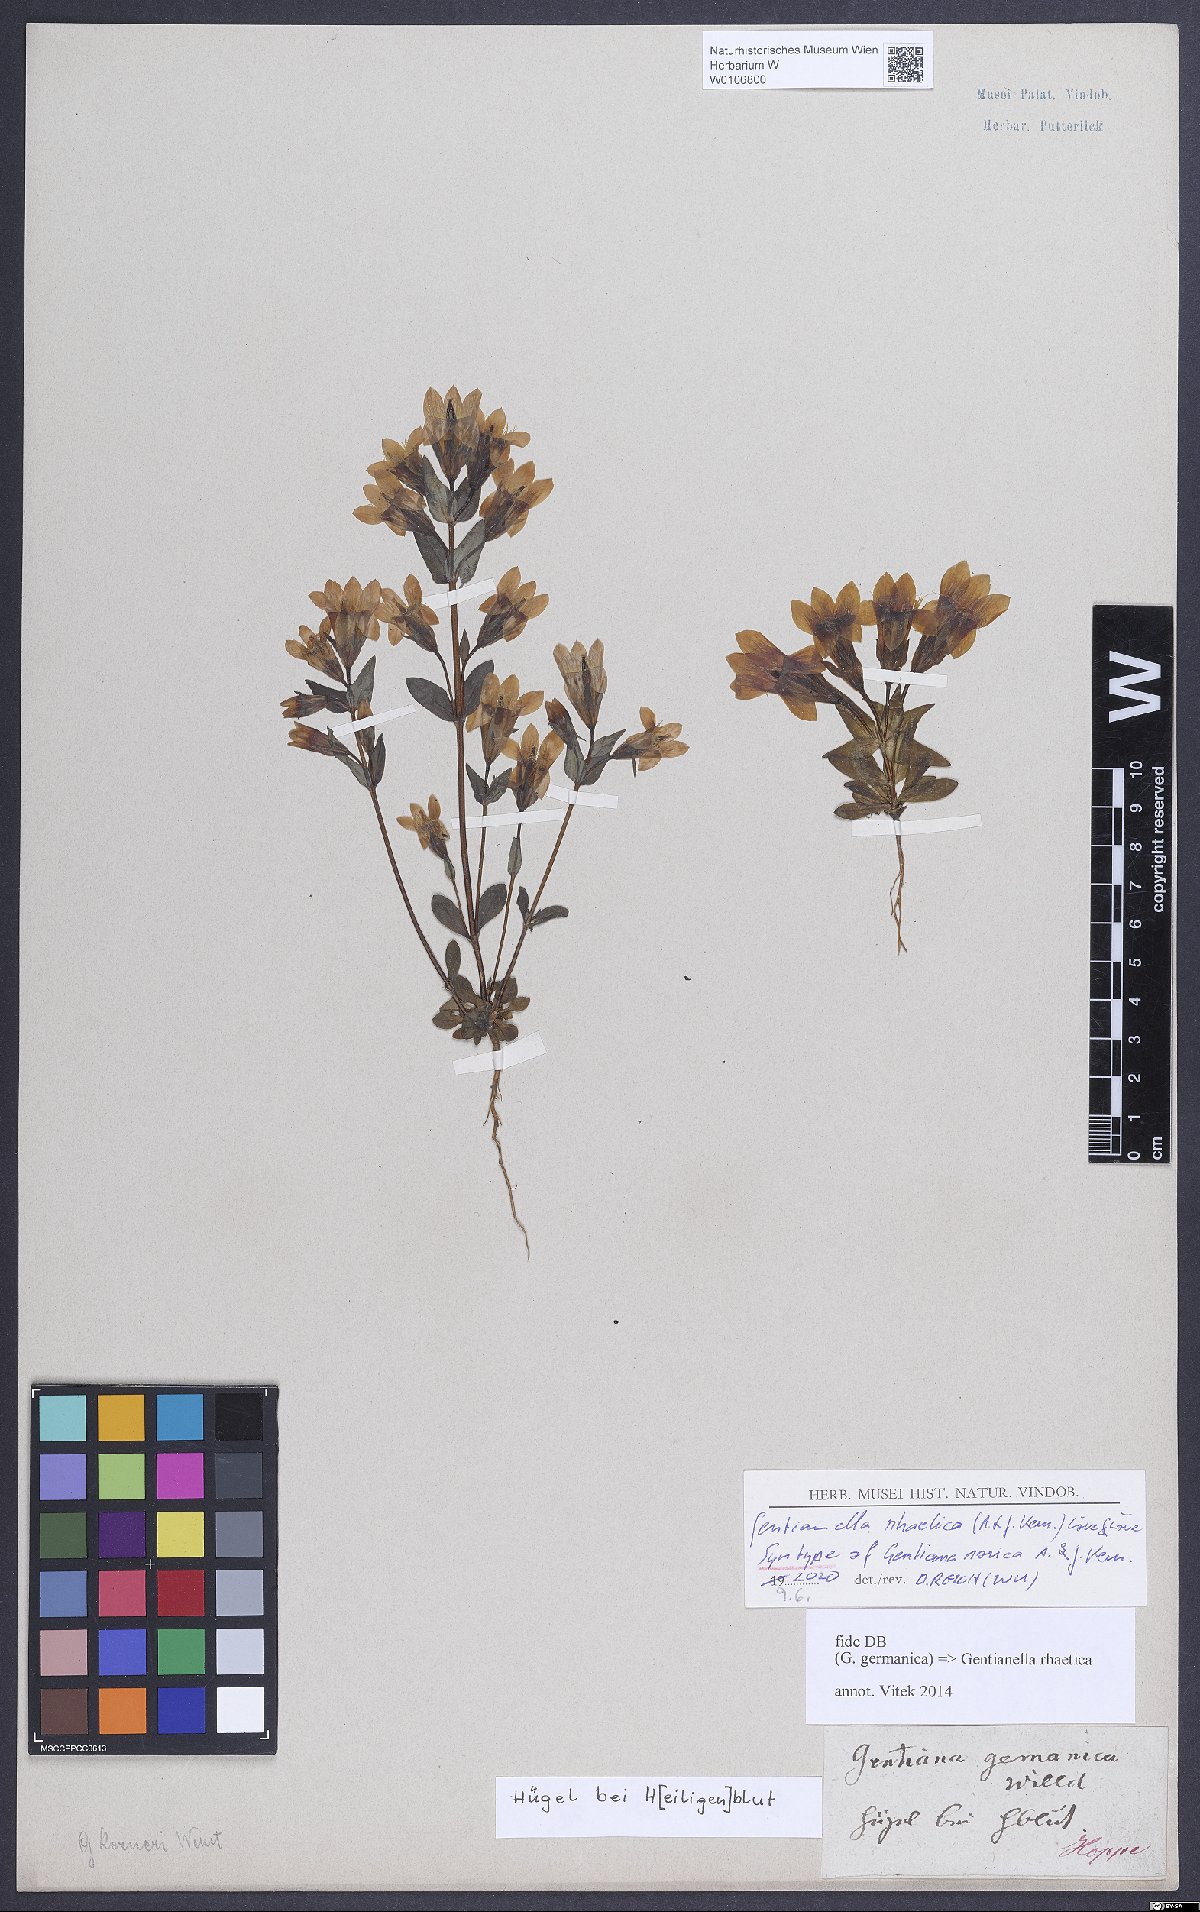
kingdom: Plantae
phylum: Tracheophyta
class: Magnoliopsida
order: Gentianales
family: Gentianaceae
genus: Gentianella
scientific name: Gentianella rhaetica
